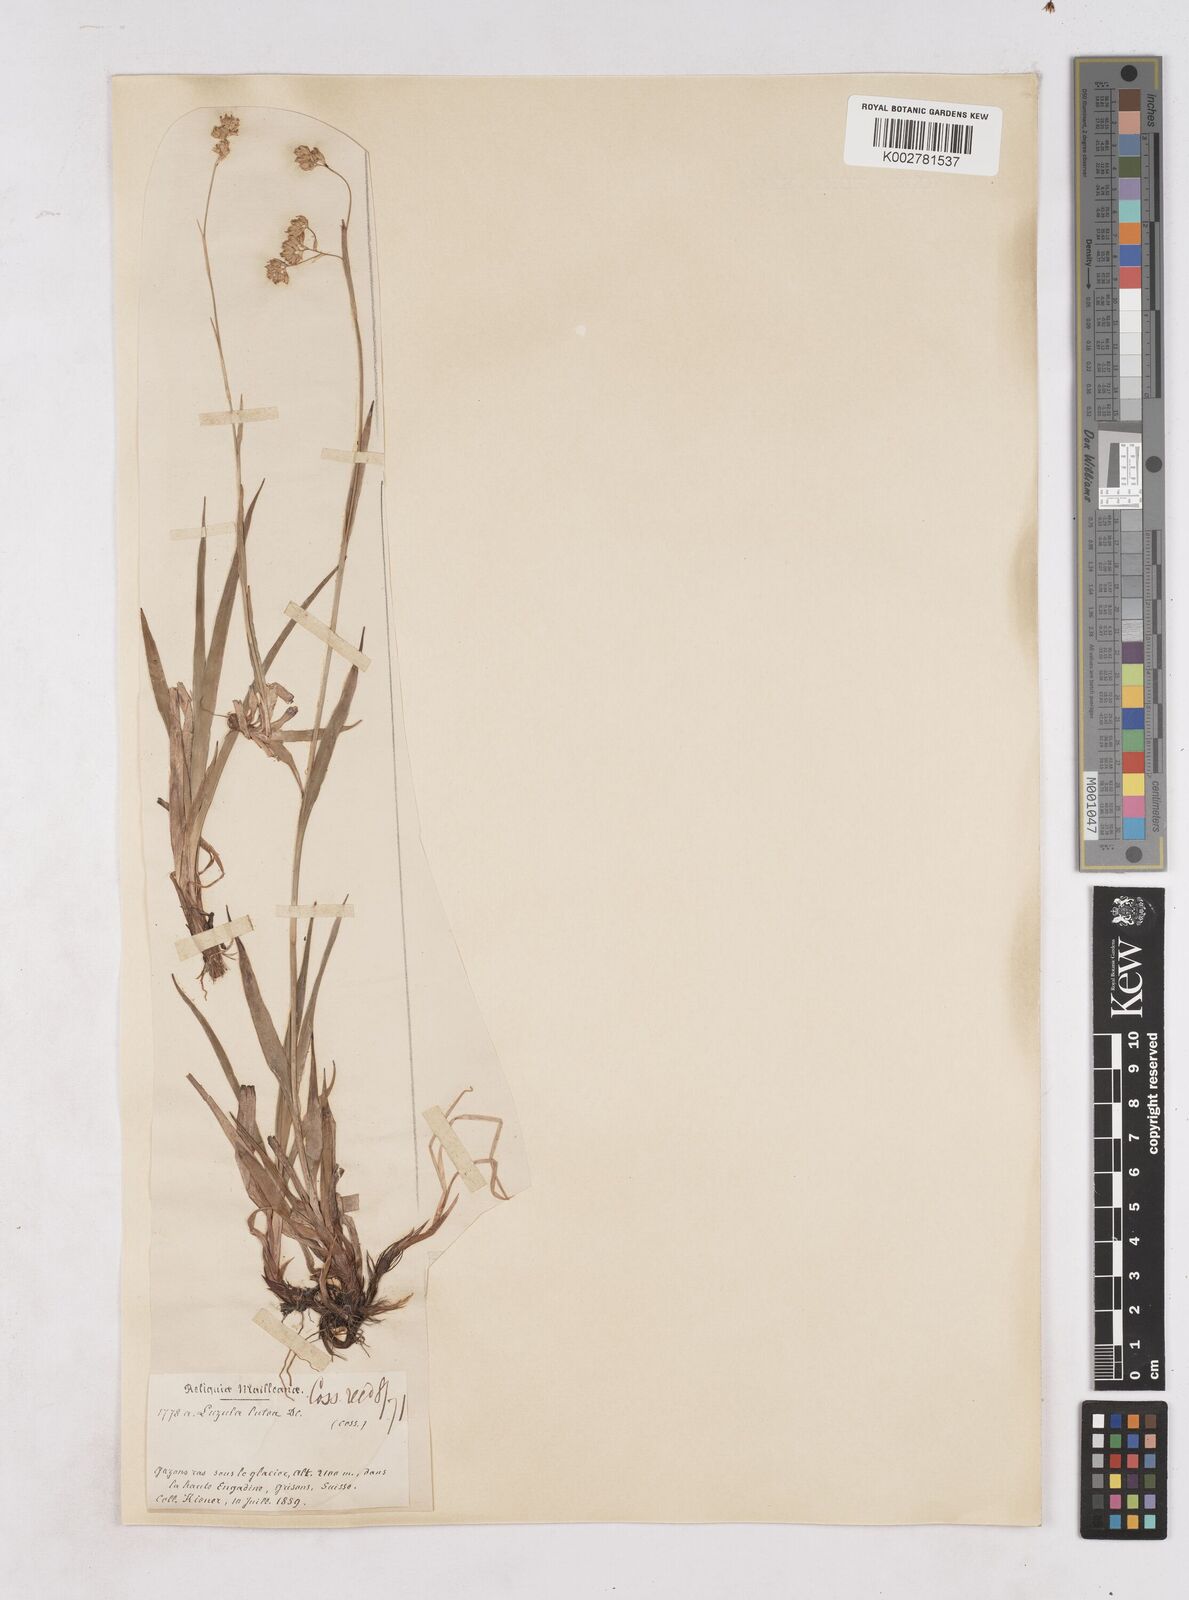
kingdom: Plantae
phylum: Tracheophyta
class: Liliopsida
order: Poales
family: Juncaceae
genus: Luzula
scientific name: Luzula lutea
